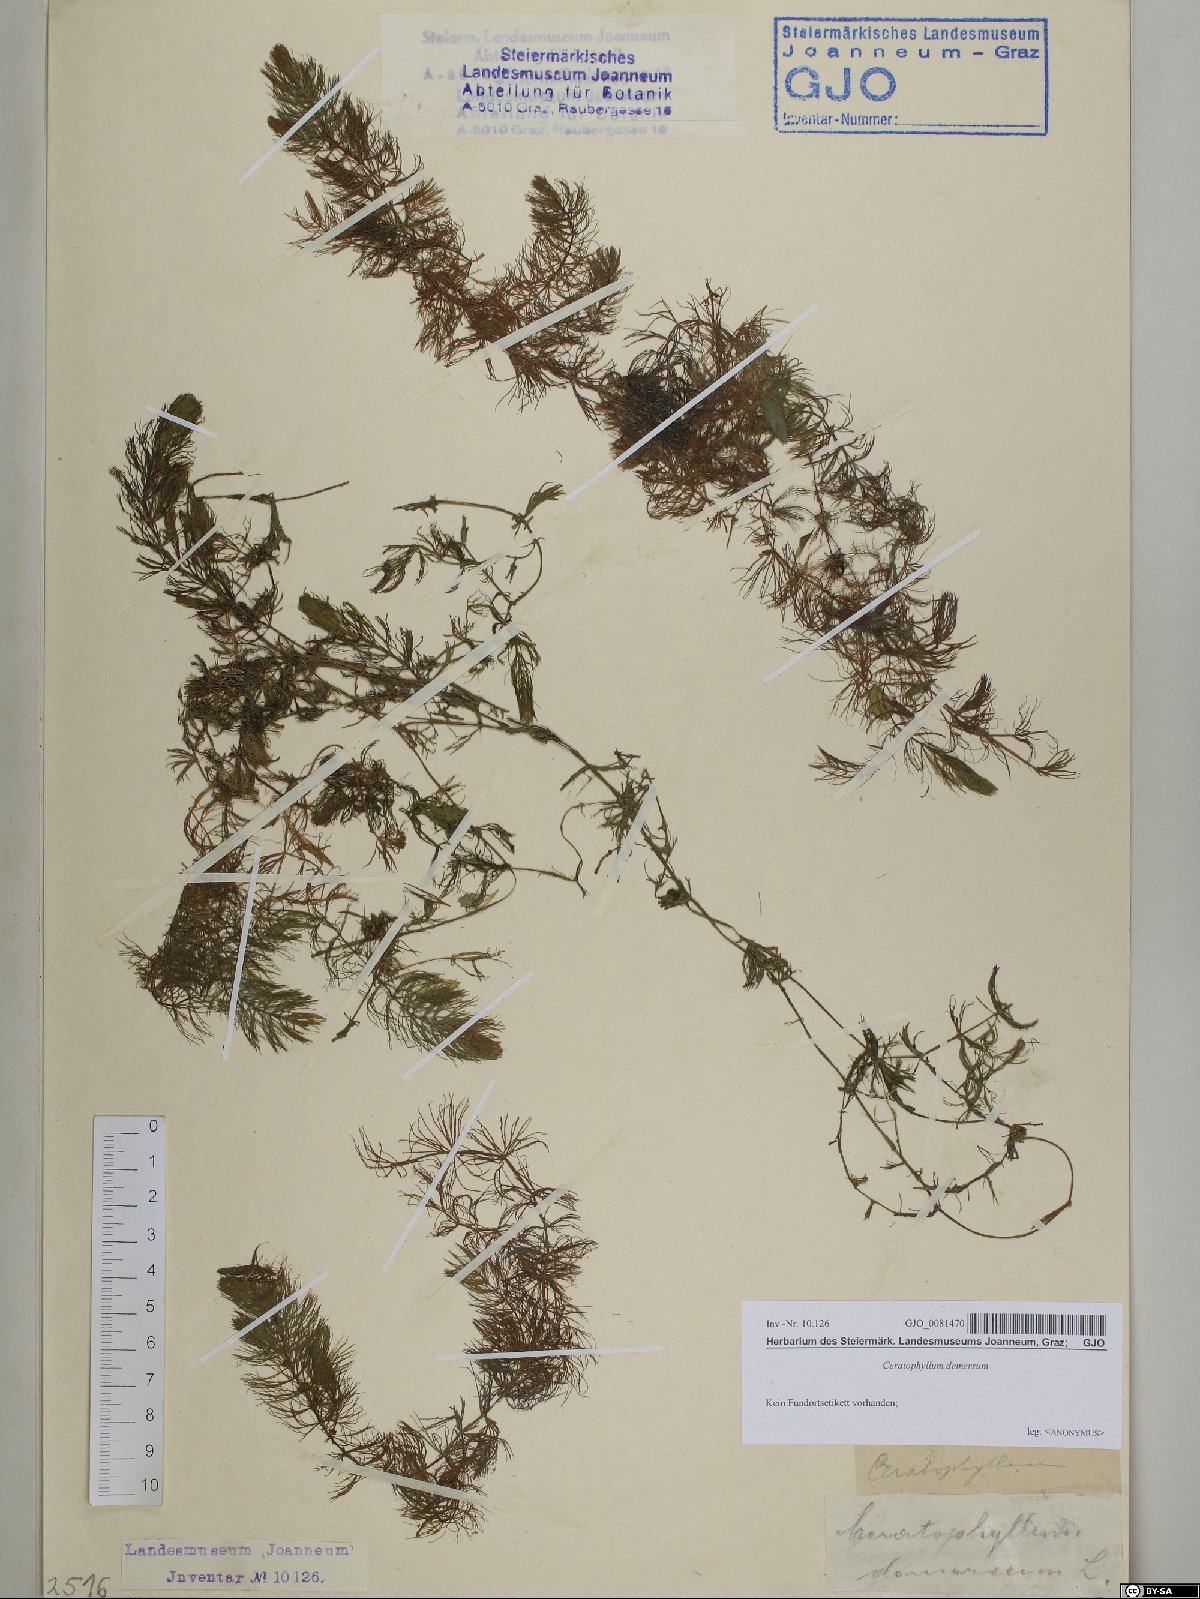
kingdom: Plantae
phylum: Tracheophyta
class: Magnoliopsida
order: Ceratophyllales
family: Ceratophyllaceae
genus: Ceratophyllum
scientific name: Ceratophyllum demersum
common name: Rigid hornwort
